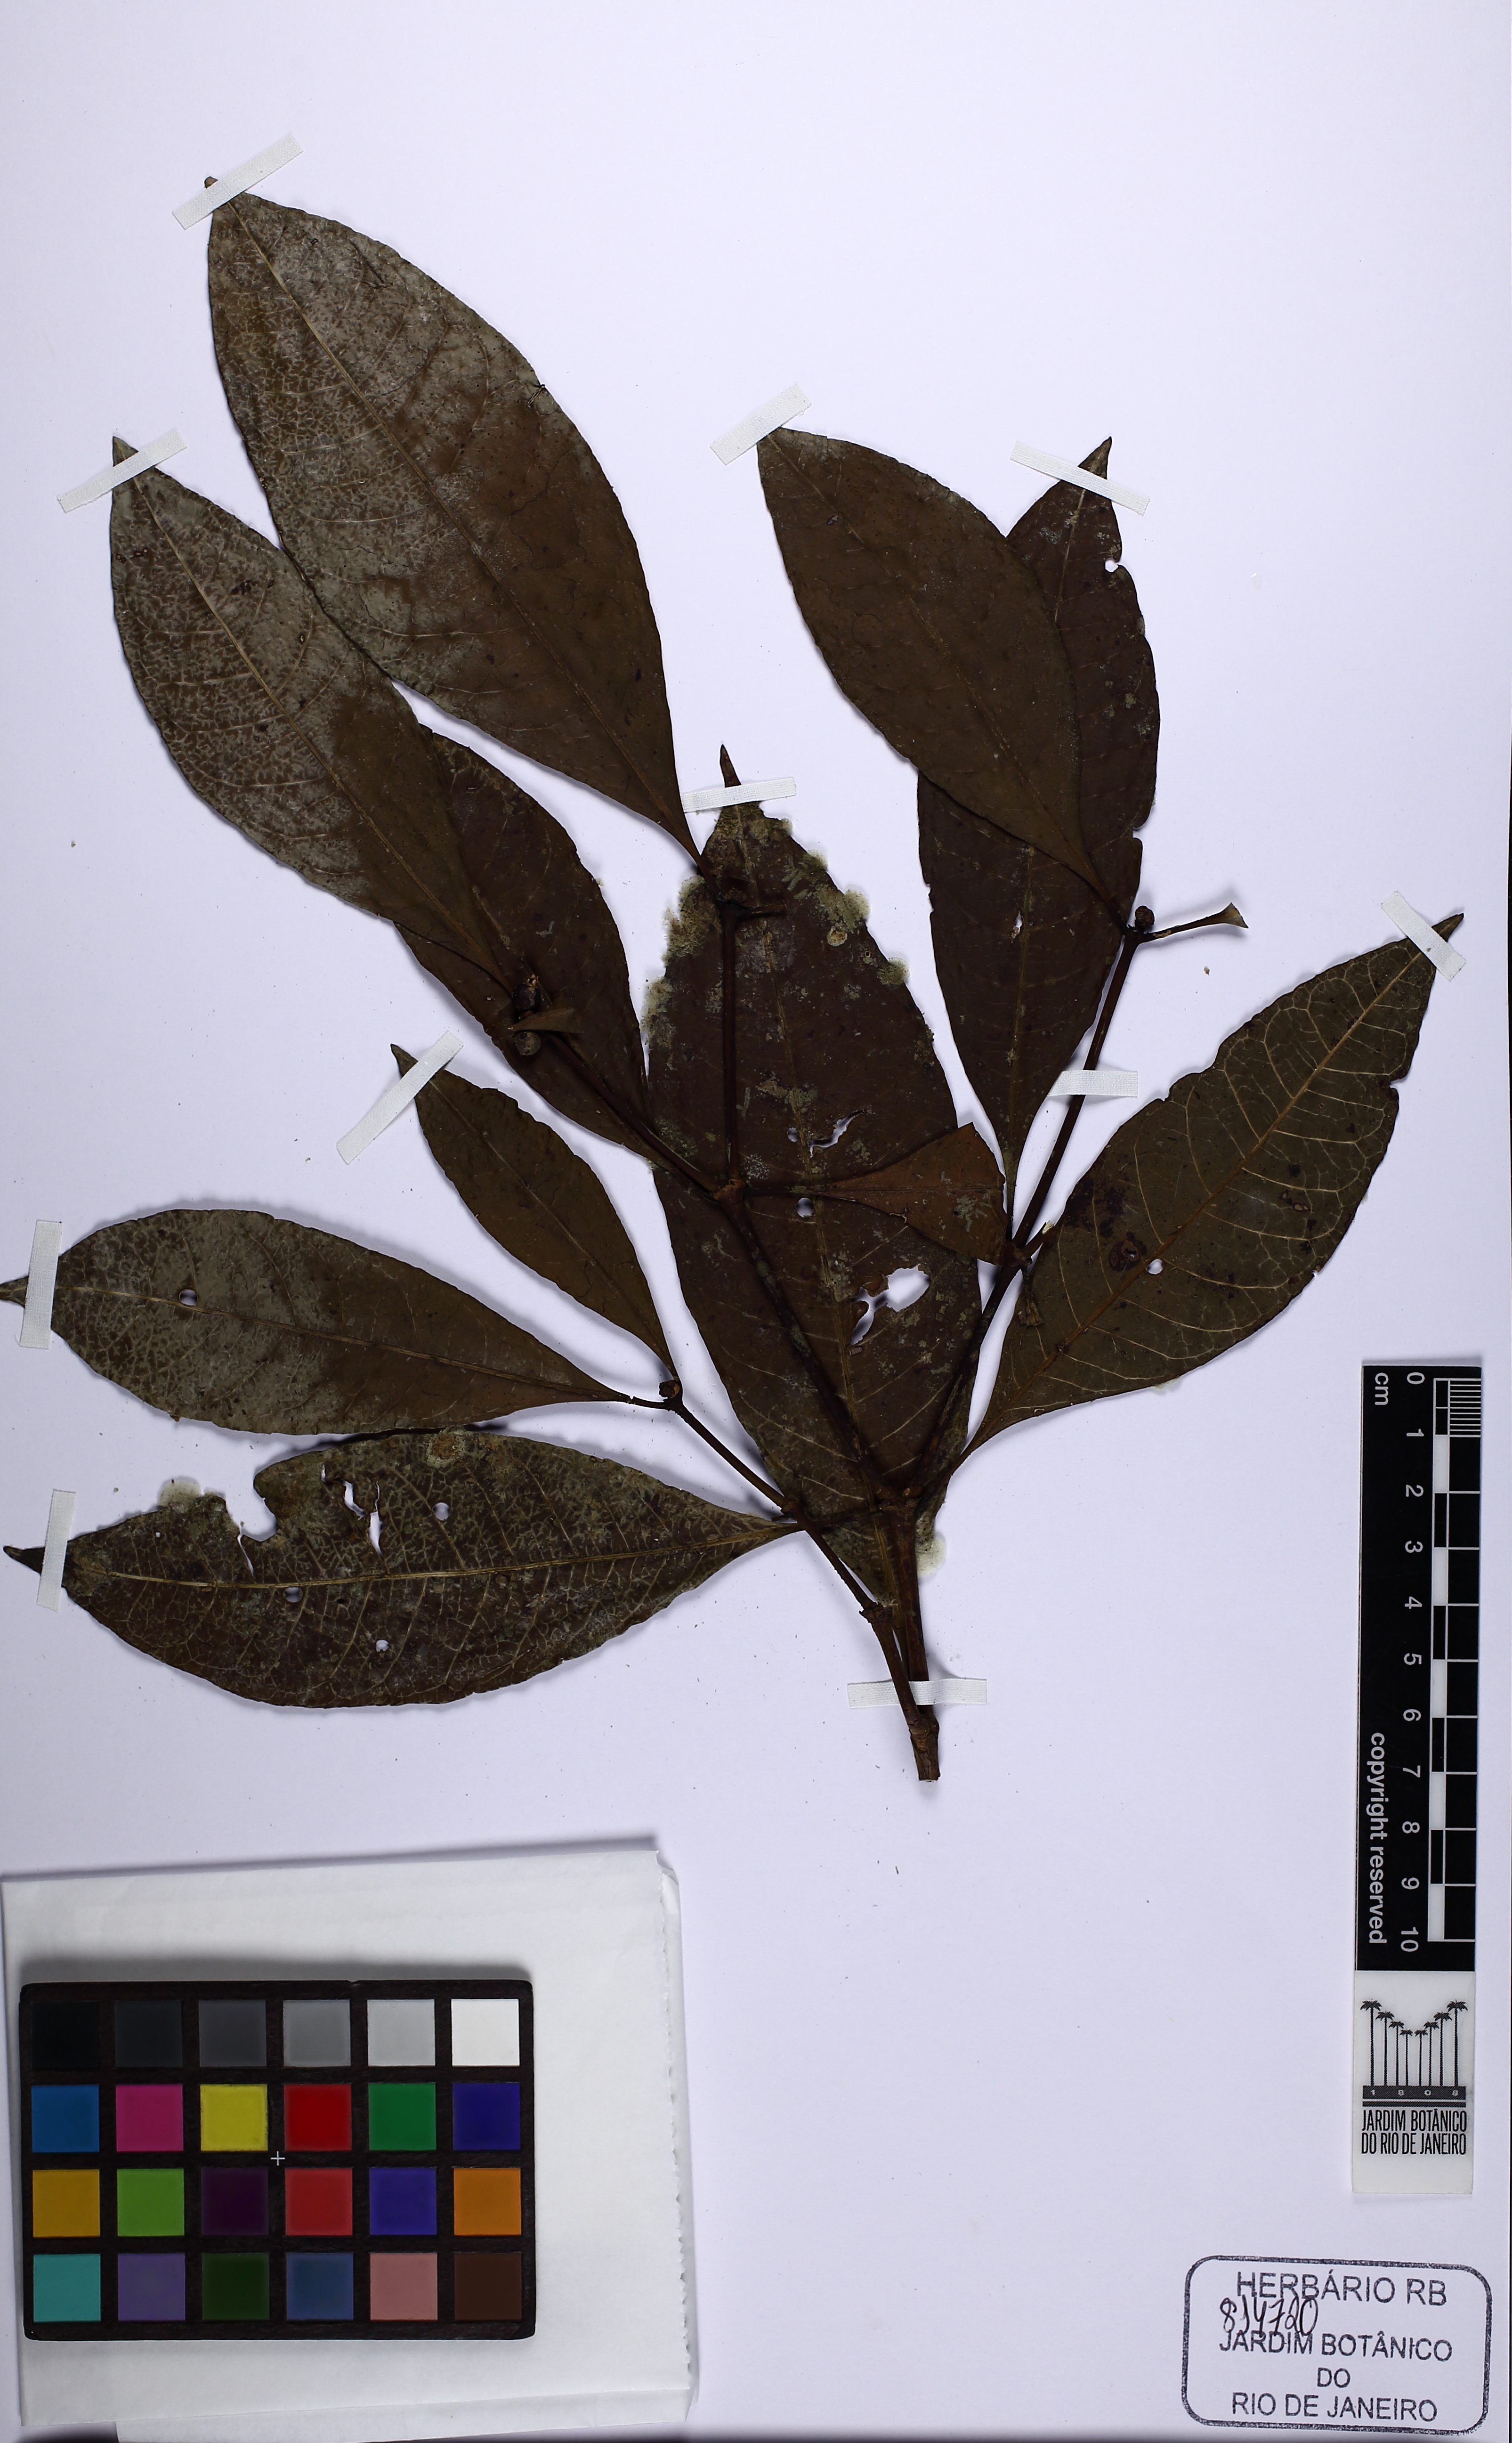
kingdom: Plantae
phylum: Tracheophyta
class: Magnoliopsida
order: Gentianales
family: Rubiaceae
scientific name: Rubiaceae
